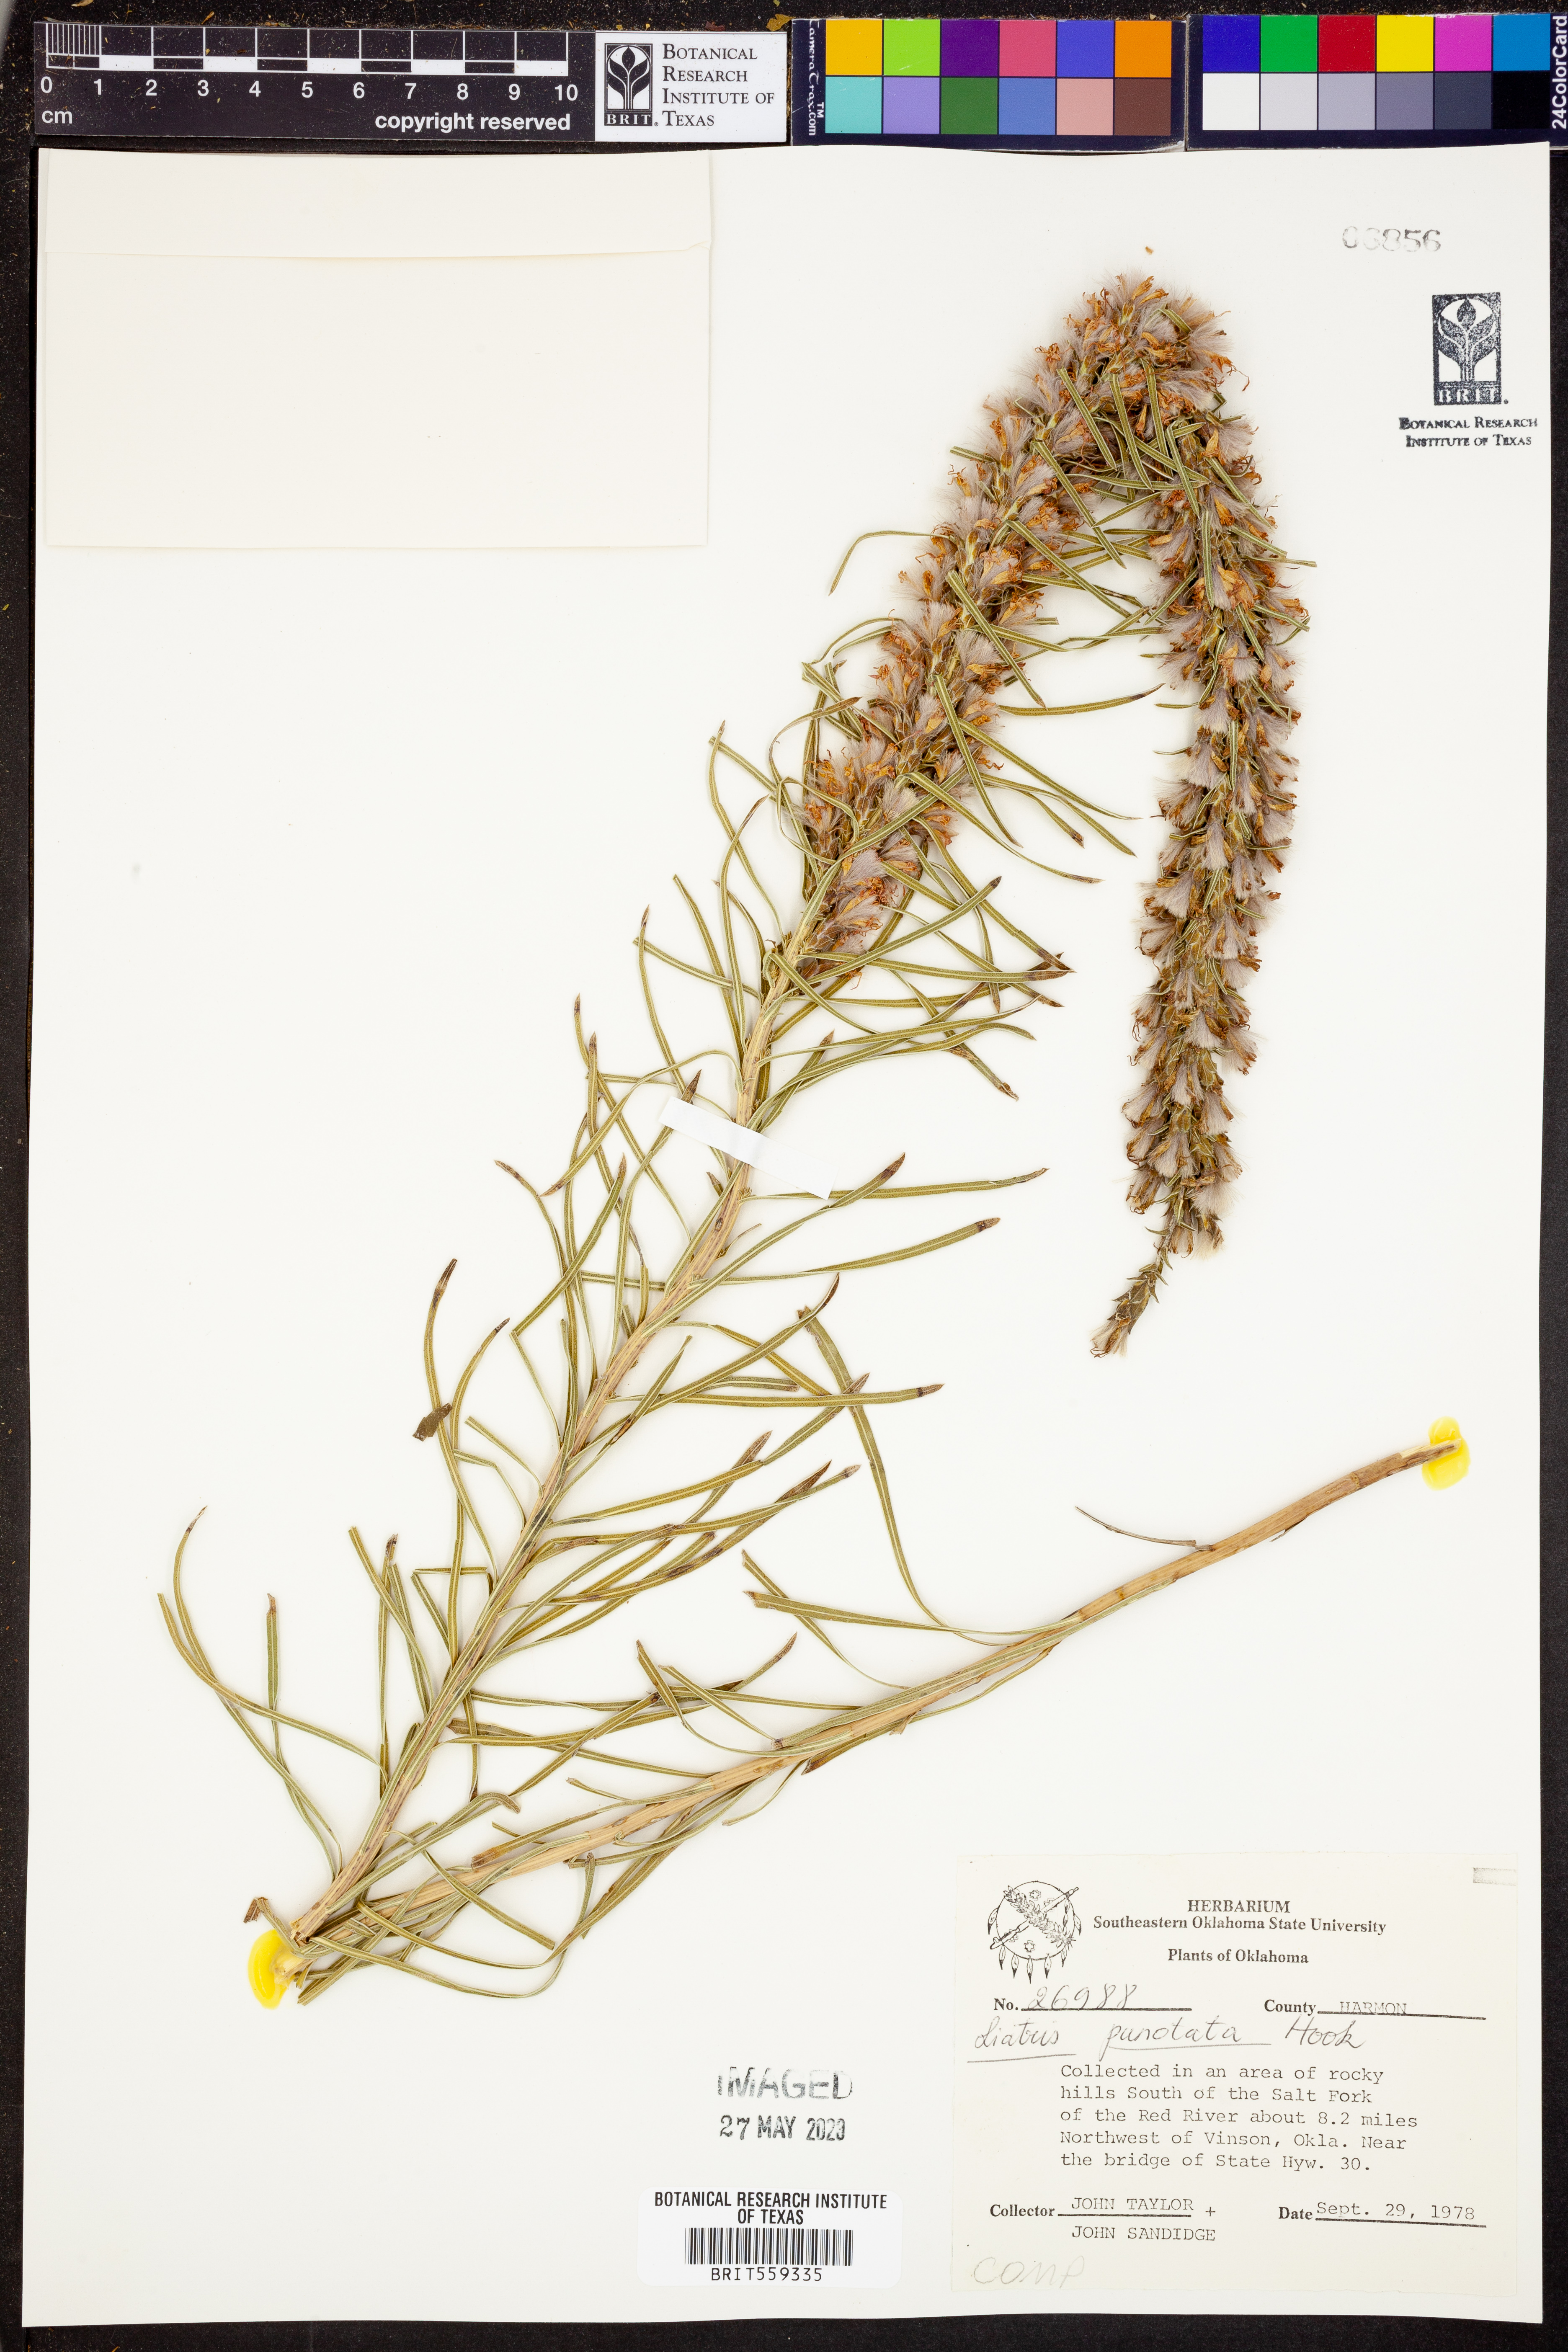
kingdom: Plantae
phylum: Tracheophyta
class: Magnoliopsida
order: Asterales
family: Asteraceae
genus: Liatris
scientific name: Liatris punctata
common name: Dotted gayfeather
